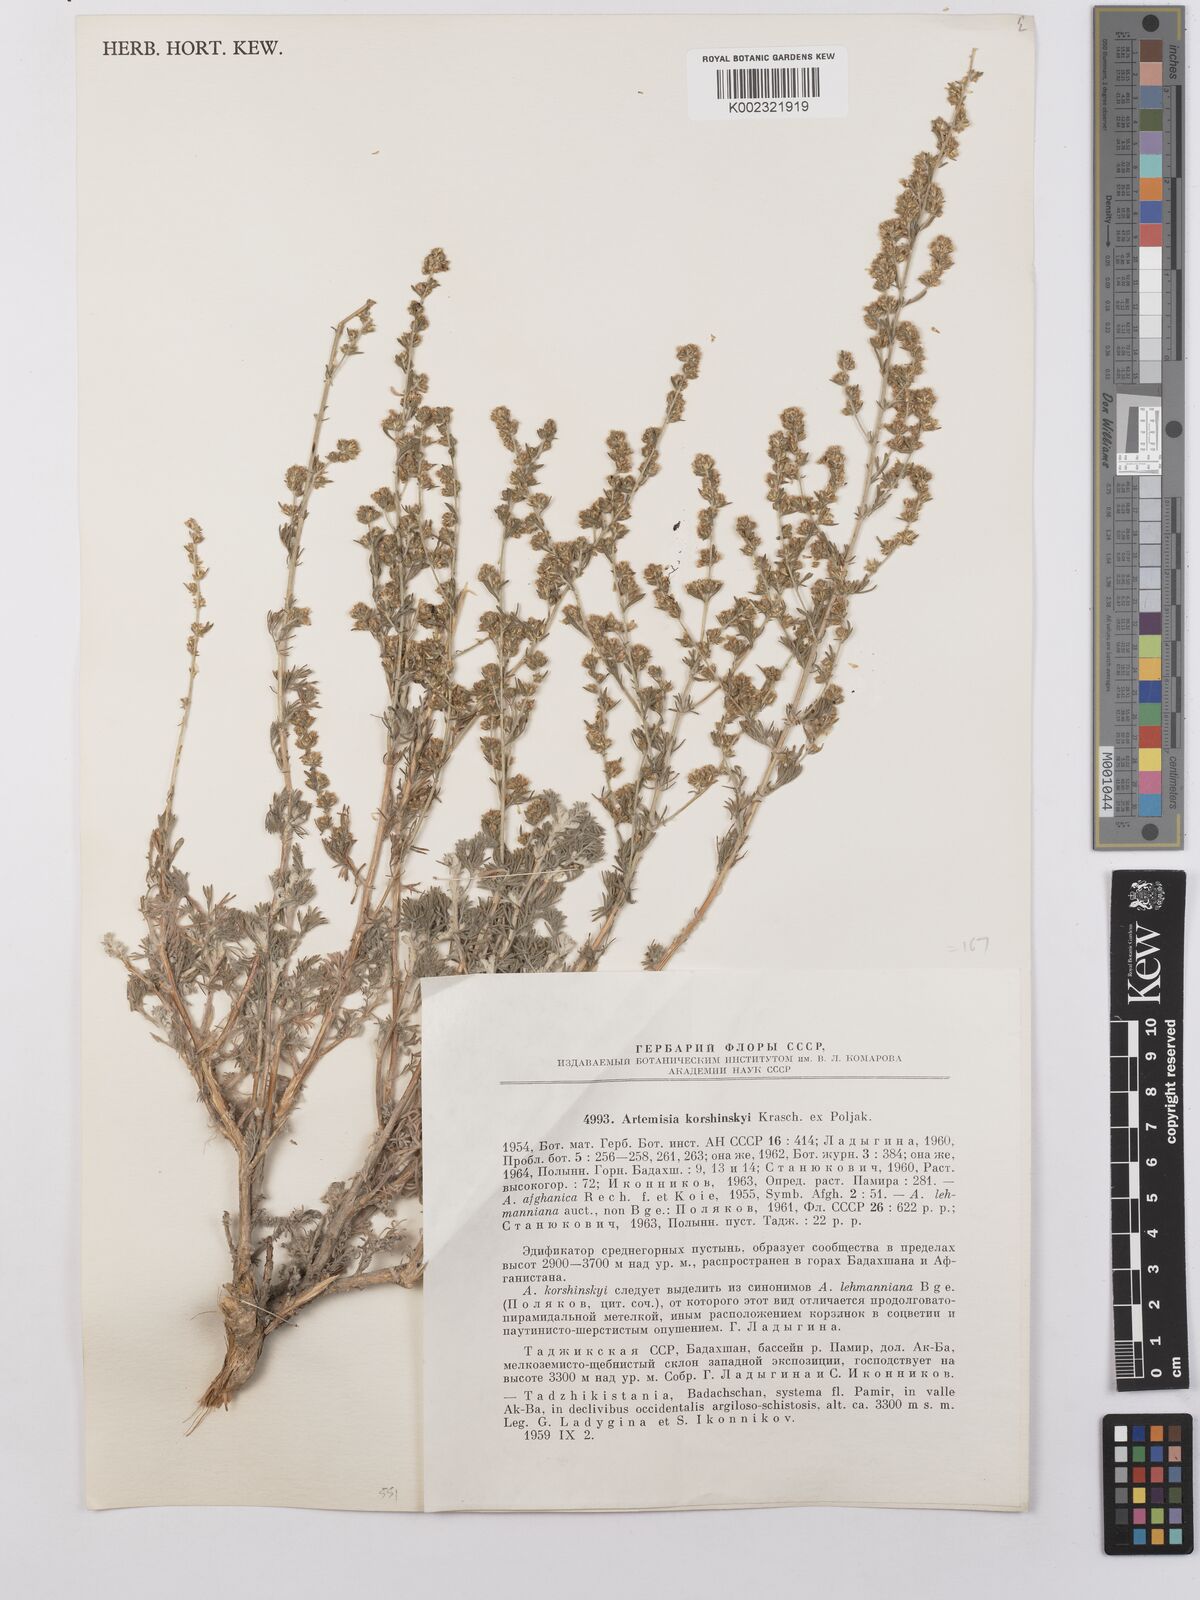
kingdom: Plantae
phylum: Tracheophyta
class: Magnoliopsida
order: Asterales
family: Asteraceae
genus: Artemisia
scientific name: Artemisia korshinskyi
